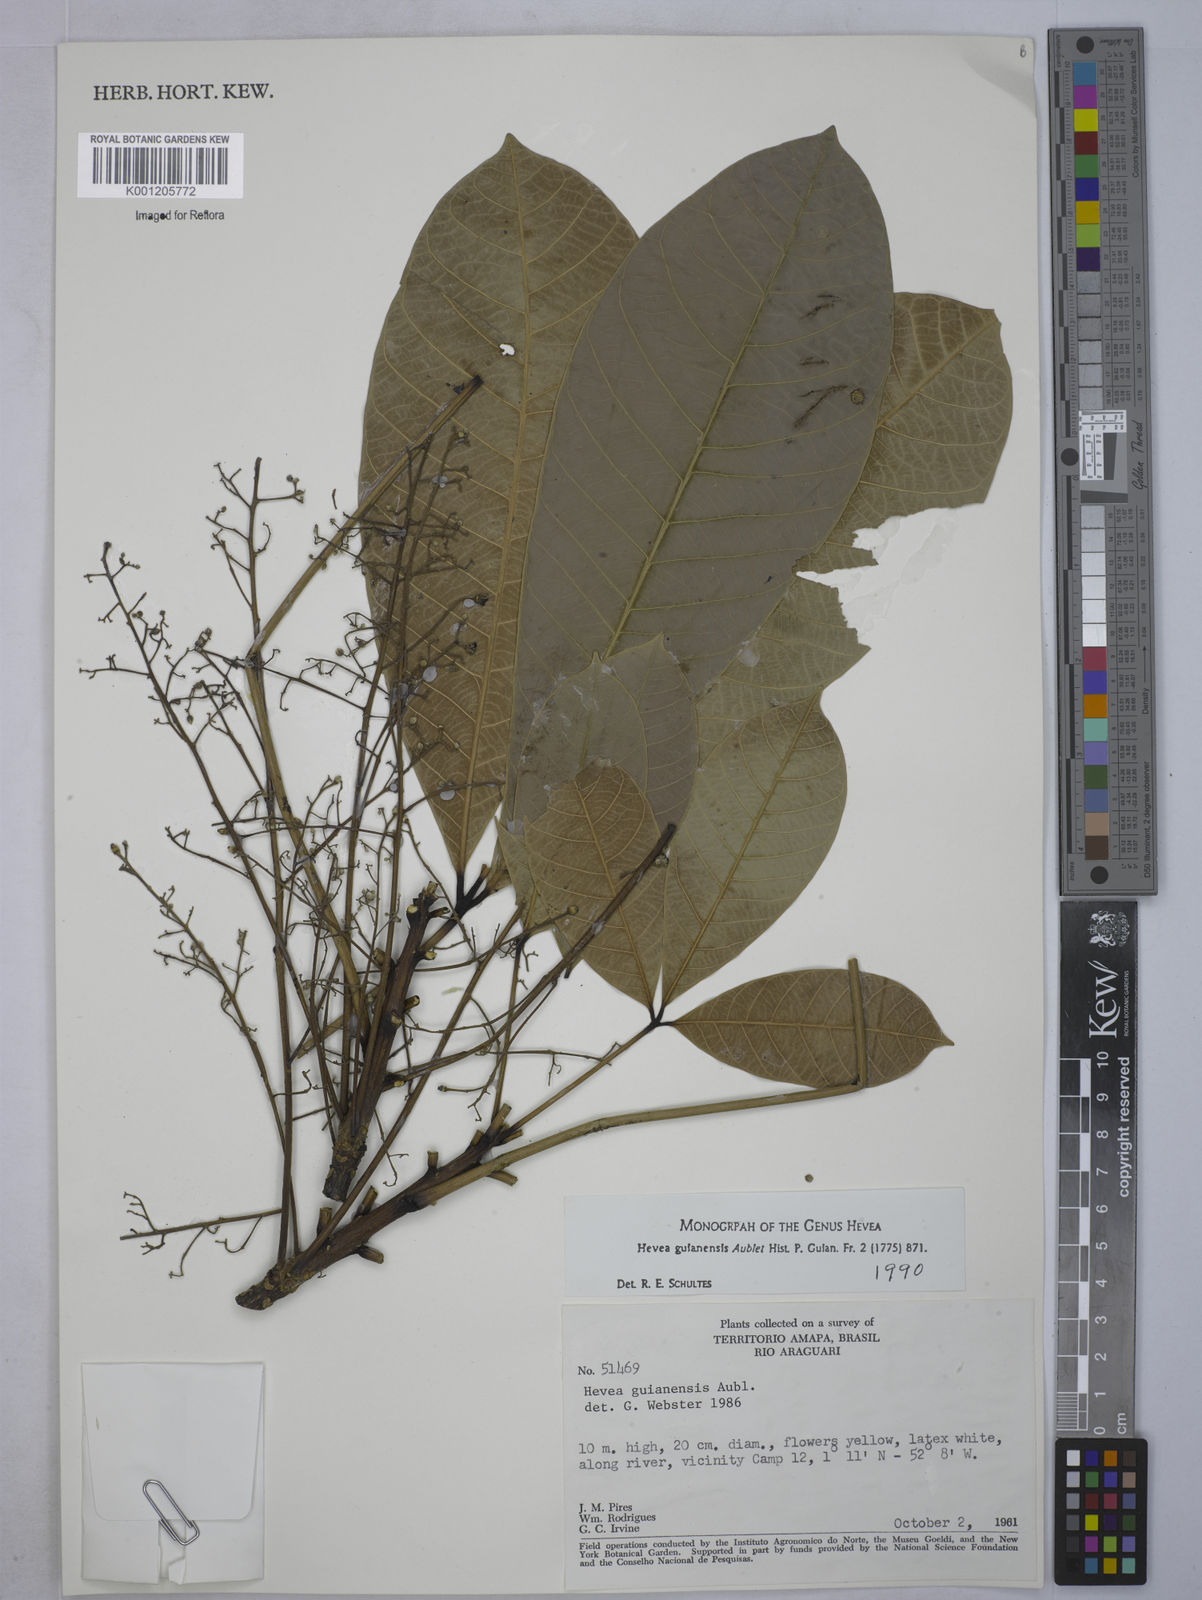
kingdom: Plantae
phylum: Tracheophyta
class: Magnoliopsida
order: Malpighiales
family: Euphorbiaceae
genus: Hevea
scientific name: Hevea guianensis
